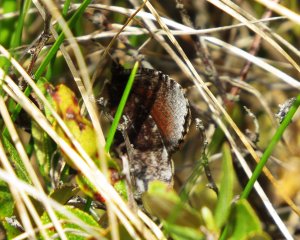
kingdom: Animalia
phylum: Arthropoda
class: Insecta
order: Lepidoptera
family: Nymphalidae
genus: Erebia
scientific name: Erebia discoidalis
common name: Red-disked Alpine
